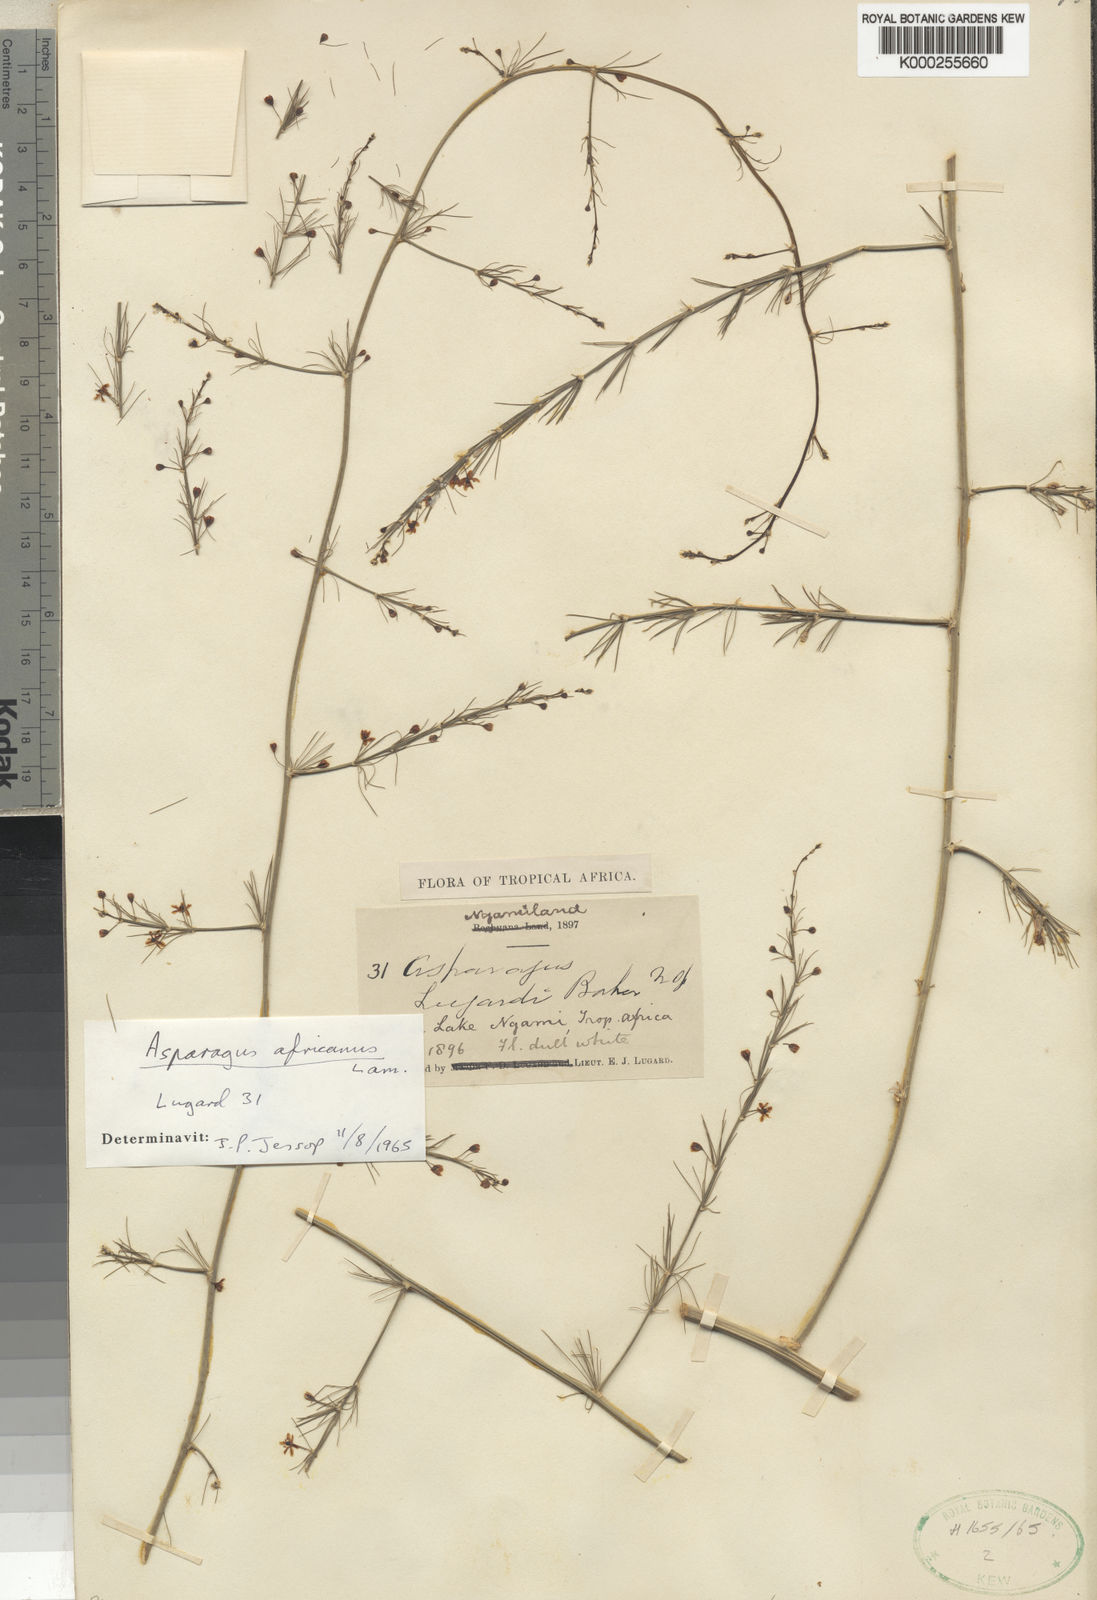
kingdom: Plantae
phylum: Tracheophyta
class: Liliopsida
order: Asparagales
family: Asparagaceae
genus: Asparagus
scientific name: Asparagus africanus
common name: Asparagus-fern
